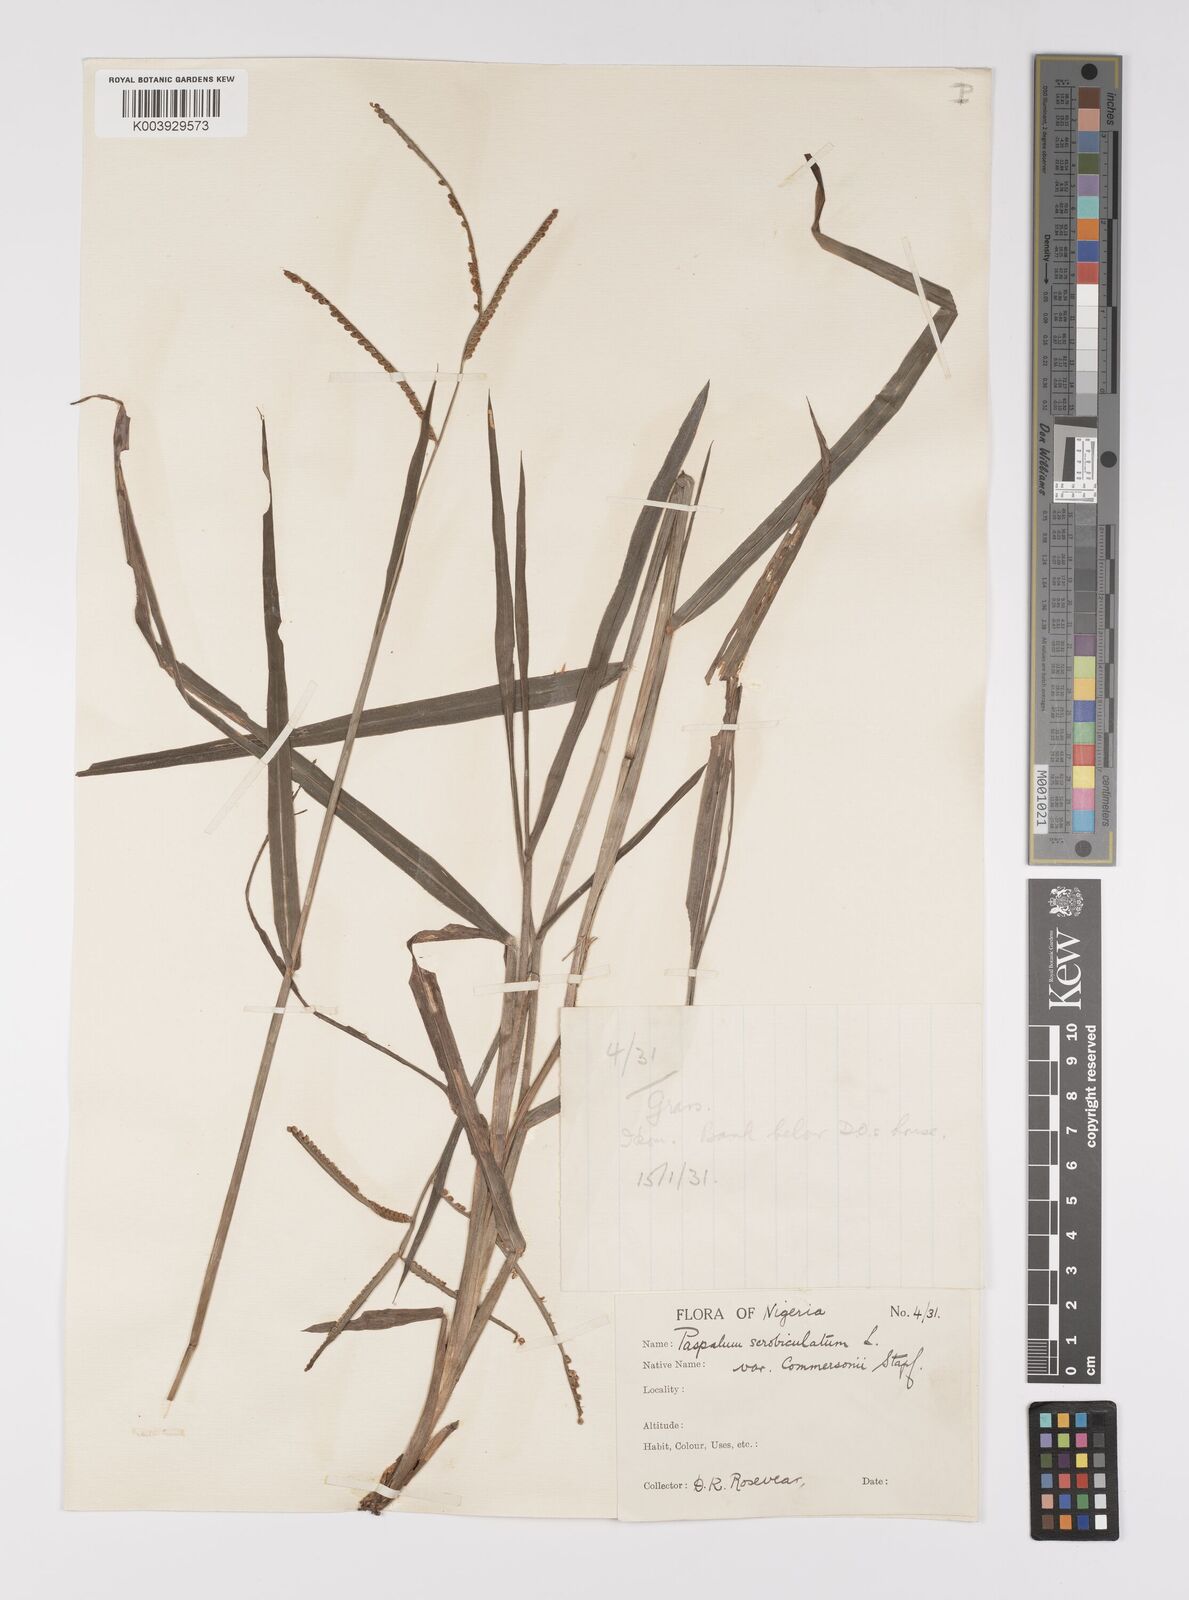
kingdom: Plantae
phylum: Tracheophyta
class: Liliopsida
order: Poales
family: Poaceae
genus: Paspalum
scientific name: Paspalum scrobiculatum
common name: Kodo millet
